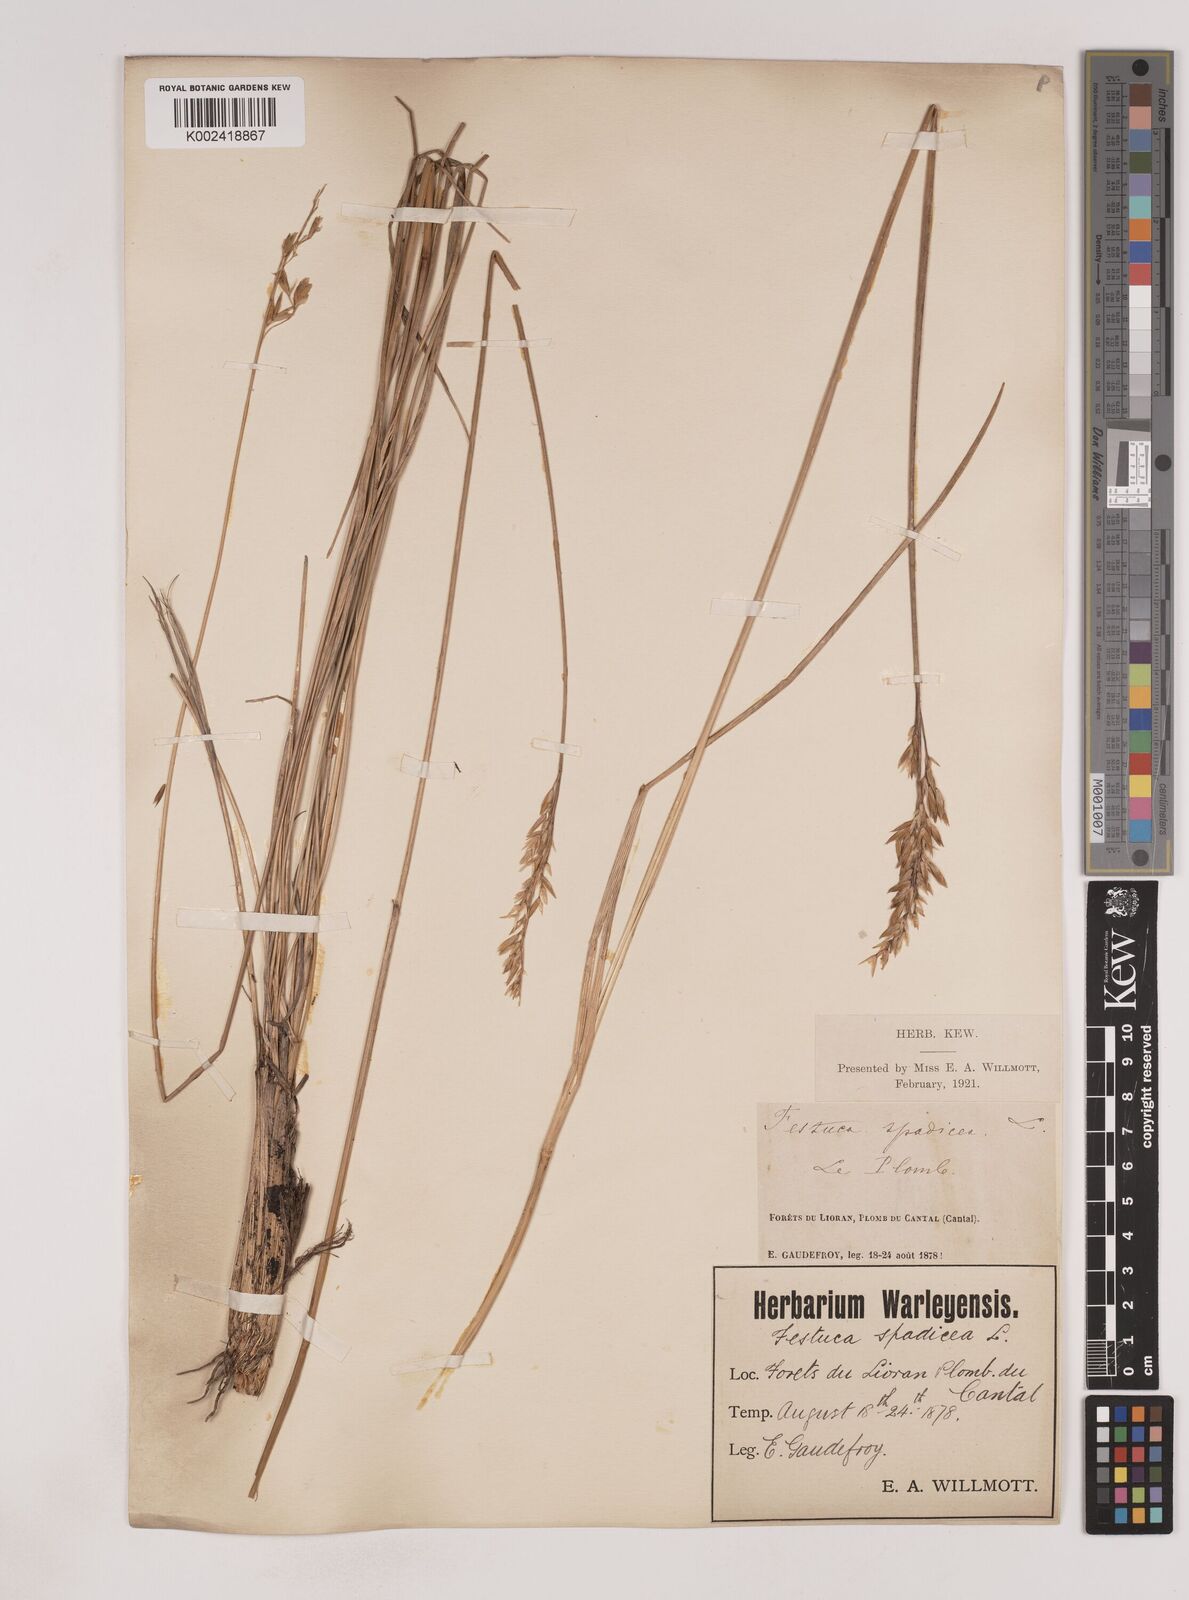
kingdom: Plantae
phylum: Tracheophyta
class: Liliopsida
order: Poales
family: Poaceae
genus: Patzkea
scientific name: Patzkea paniculata
